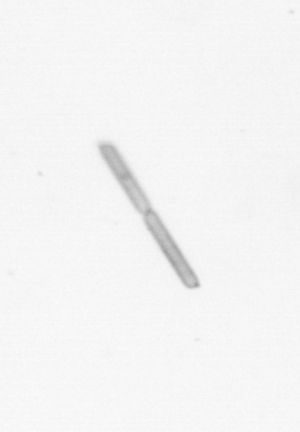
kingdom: Chromista
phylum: Ochrophyta
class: Bacillariophyceae
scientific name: Bacillariophyceae
